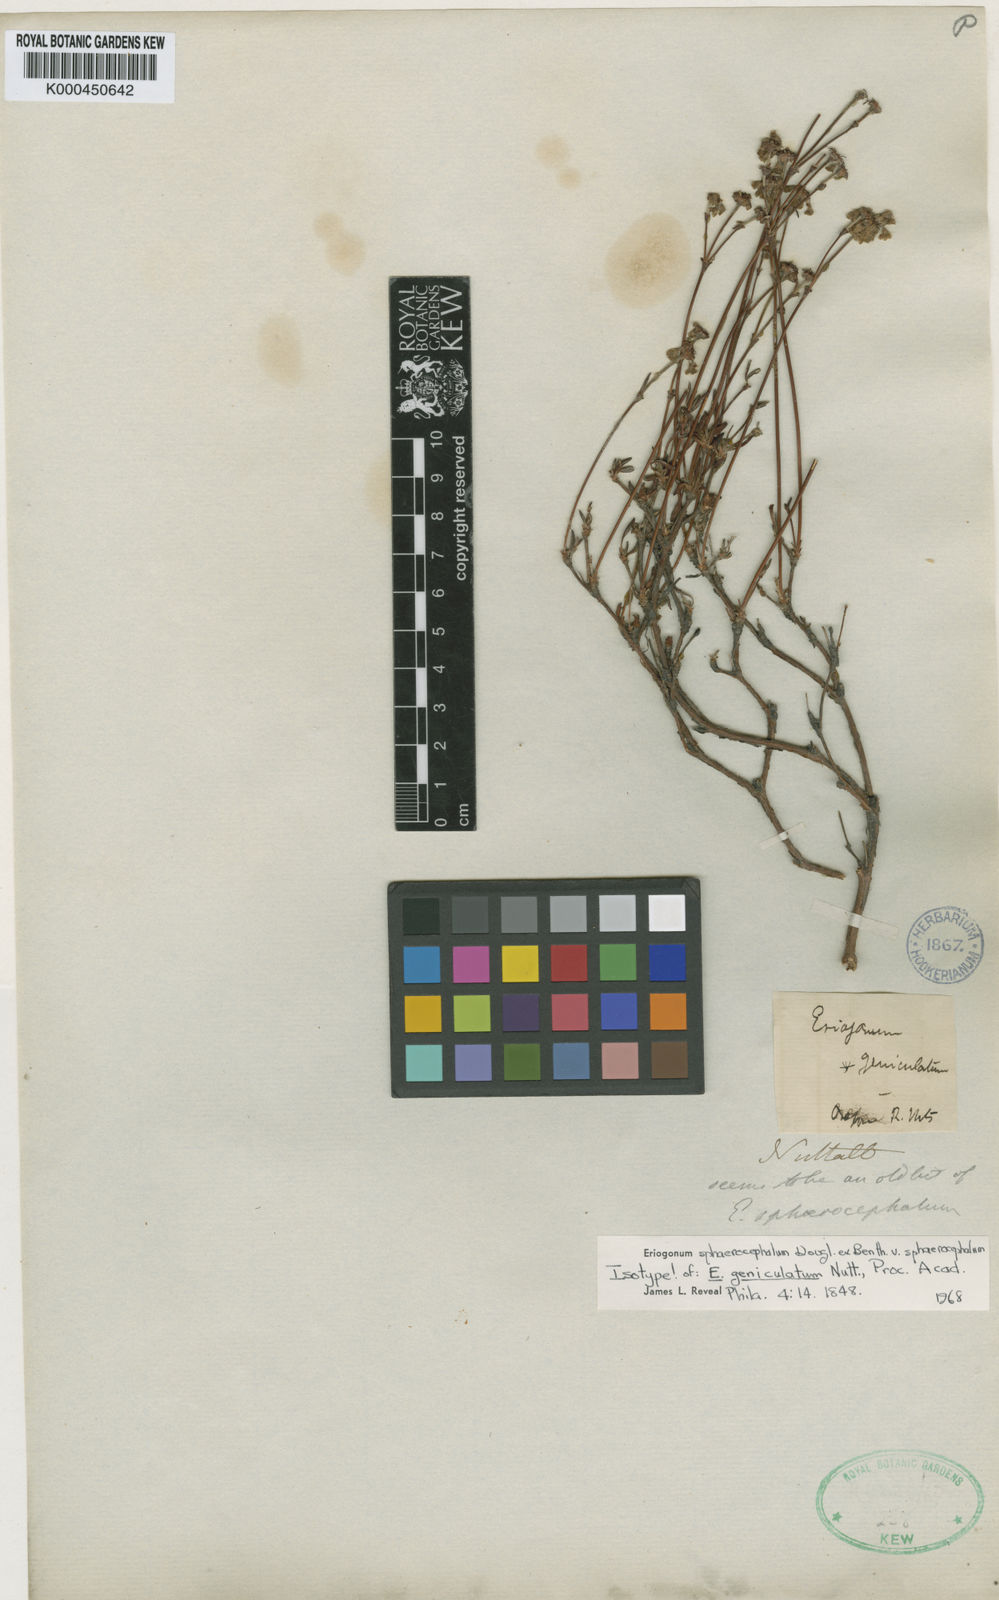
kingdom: Plantae
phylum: Tracheophyta
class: Magnoliopsida
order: Caryophyllales
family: Polygonaceae
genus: Eriogonum
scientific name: Eriogonum
